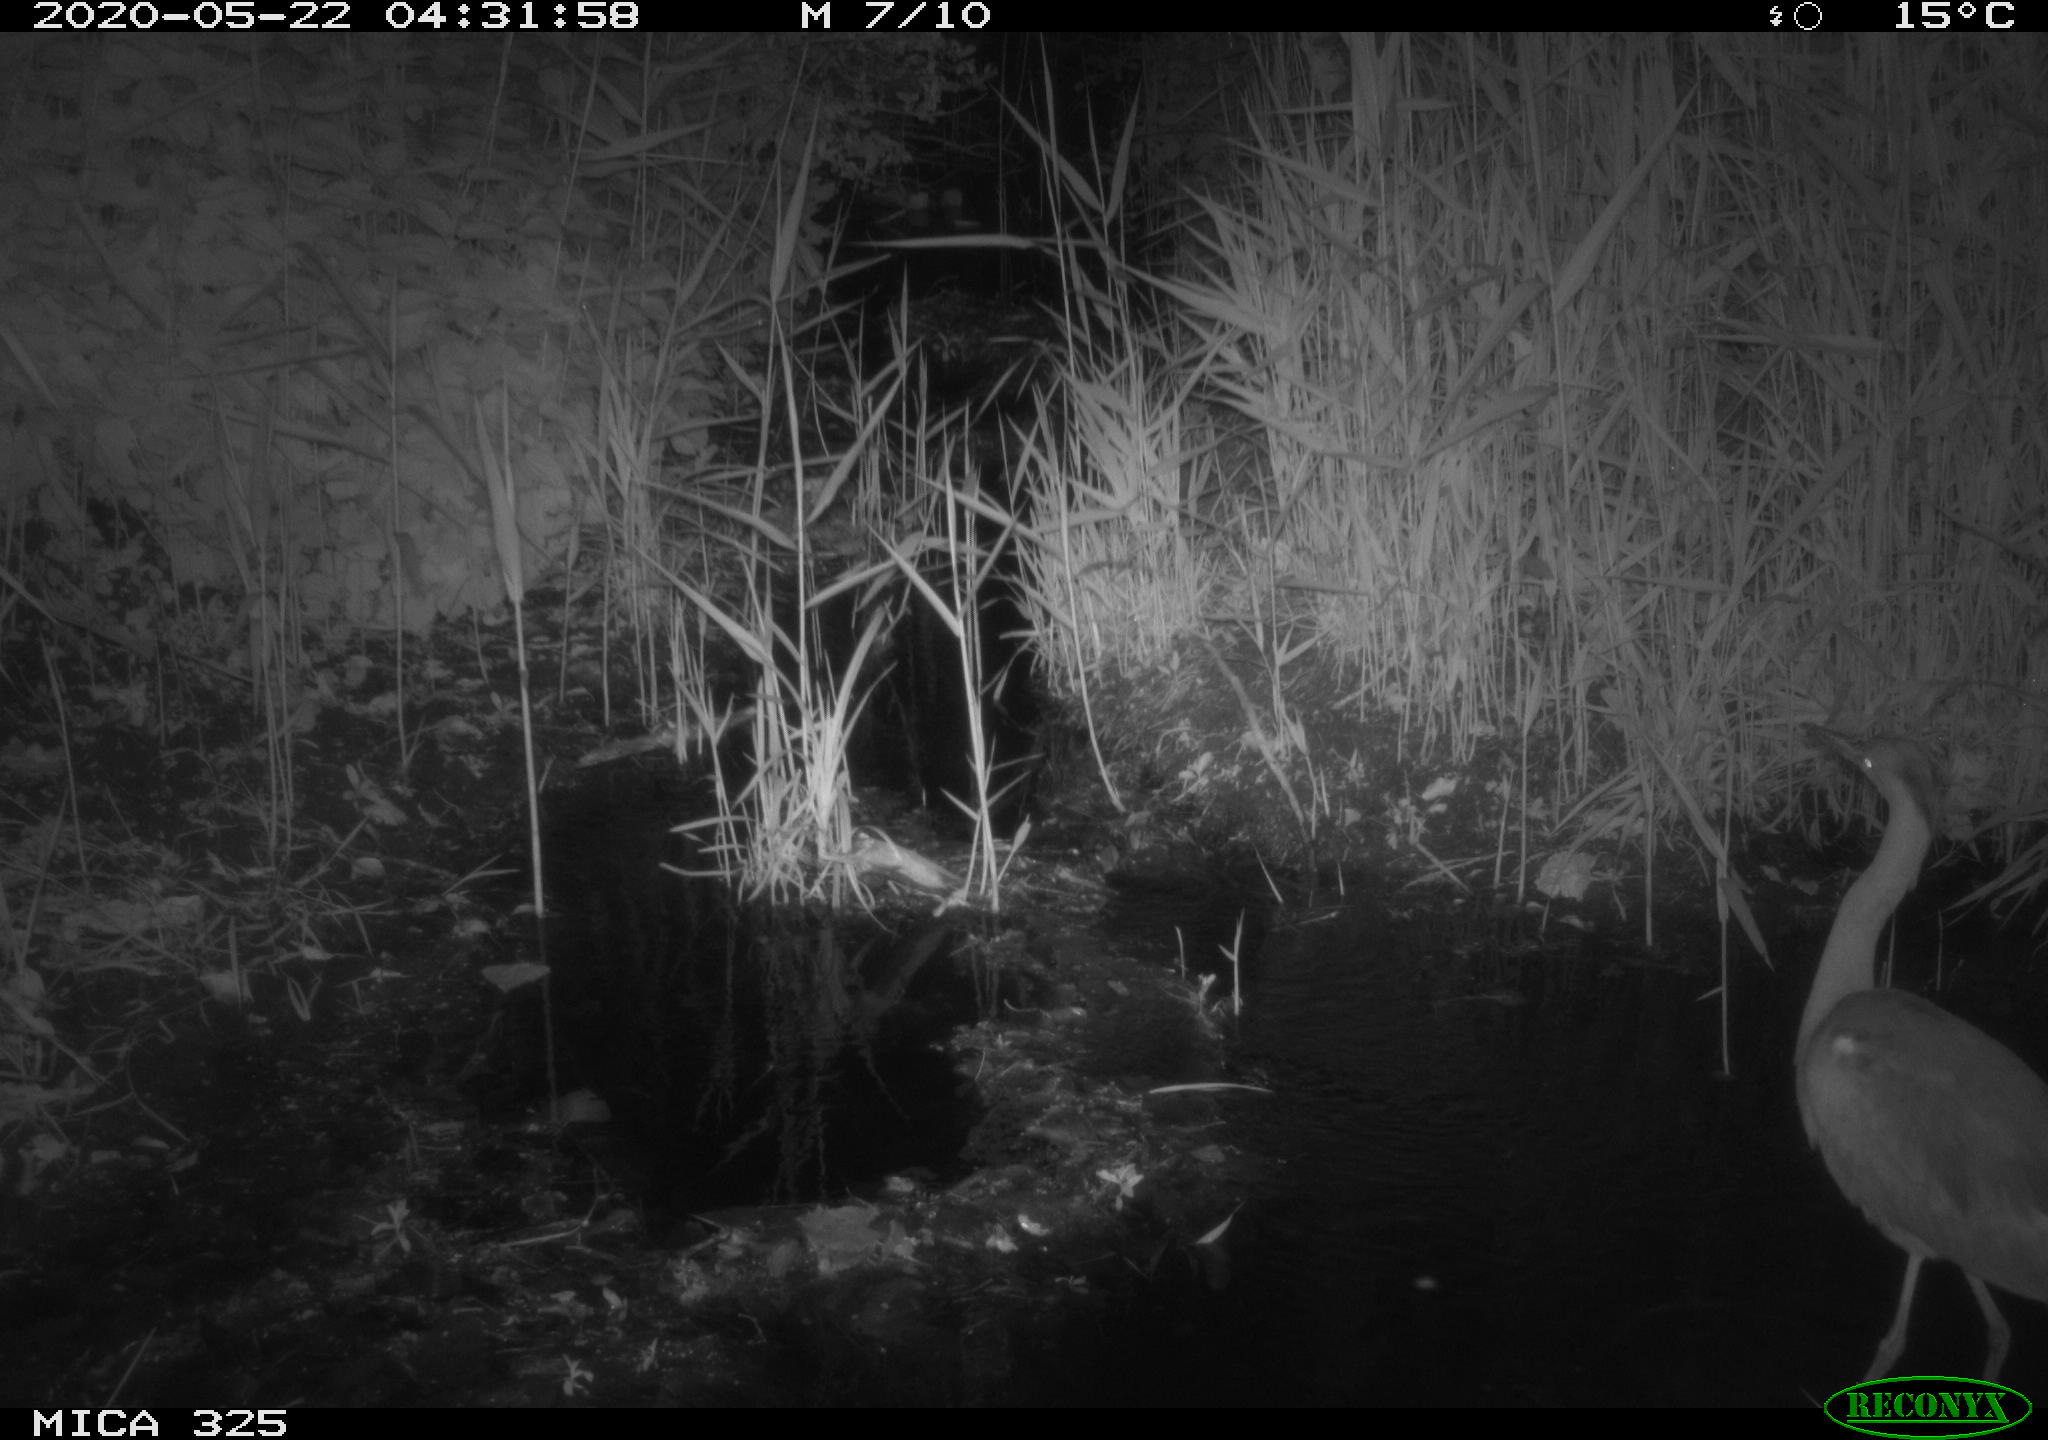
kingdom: Animalia
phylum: Chordata
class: Aves
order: Pelecaniformes
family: Ardeidae
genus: Ardea
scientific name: Ardea cinerea
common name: Grey heron
